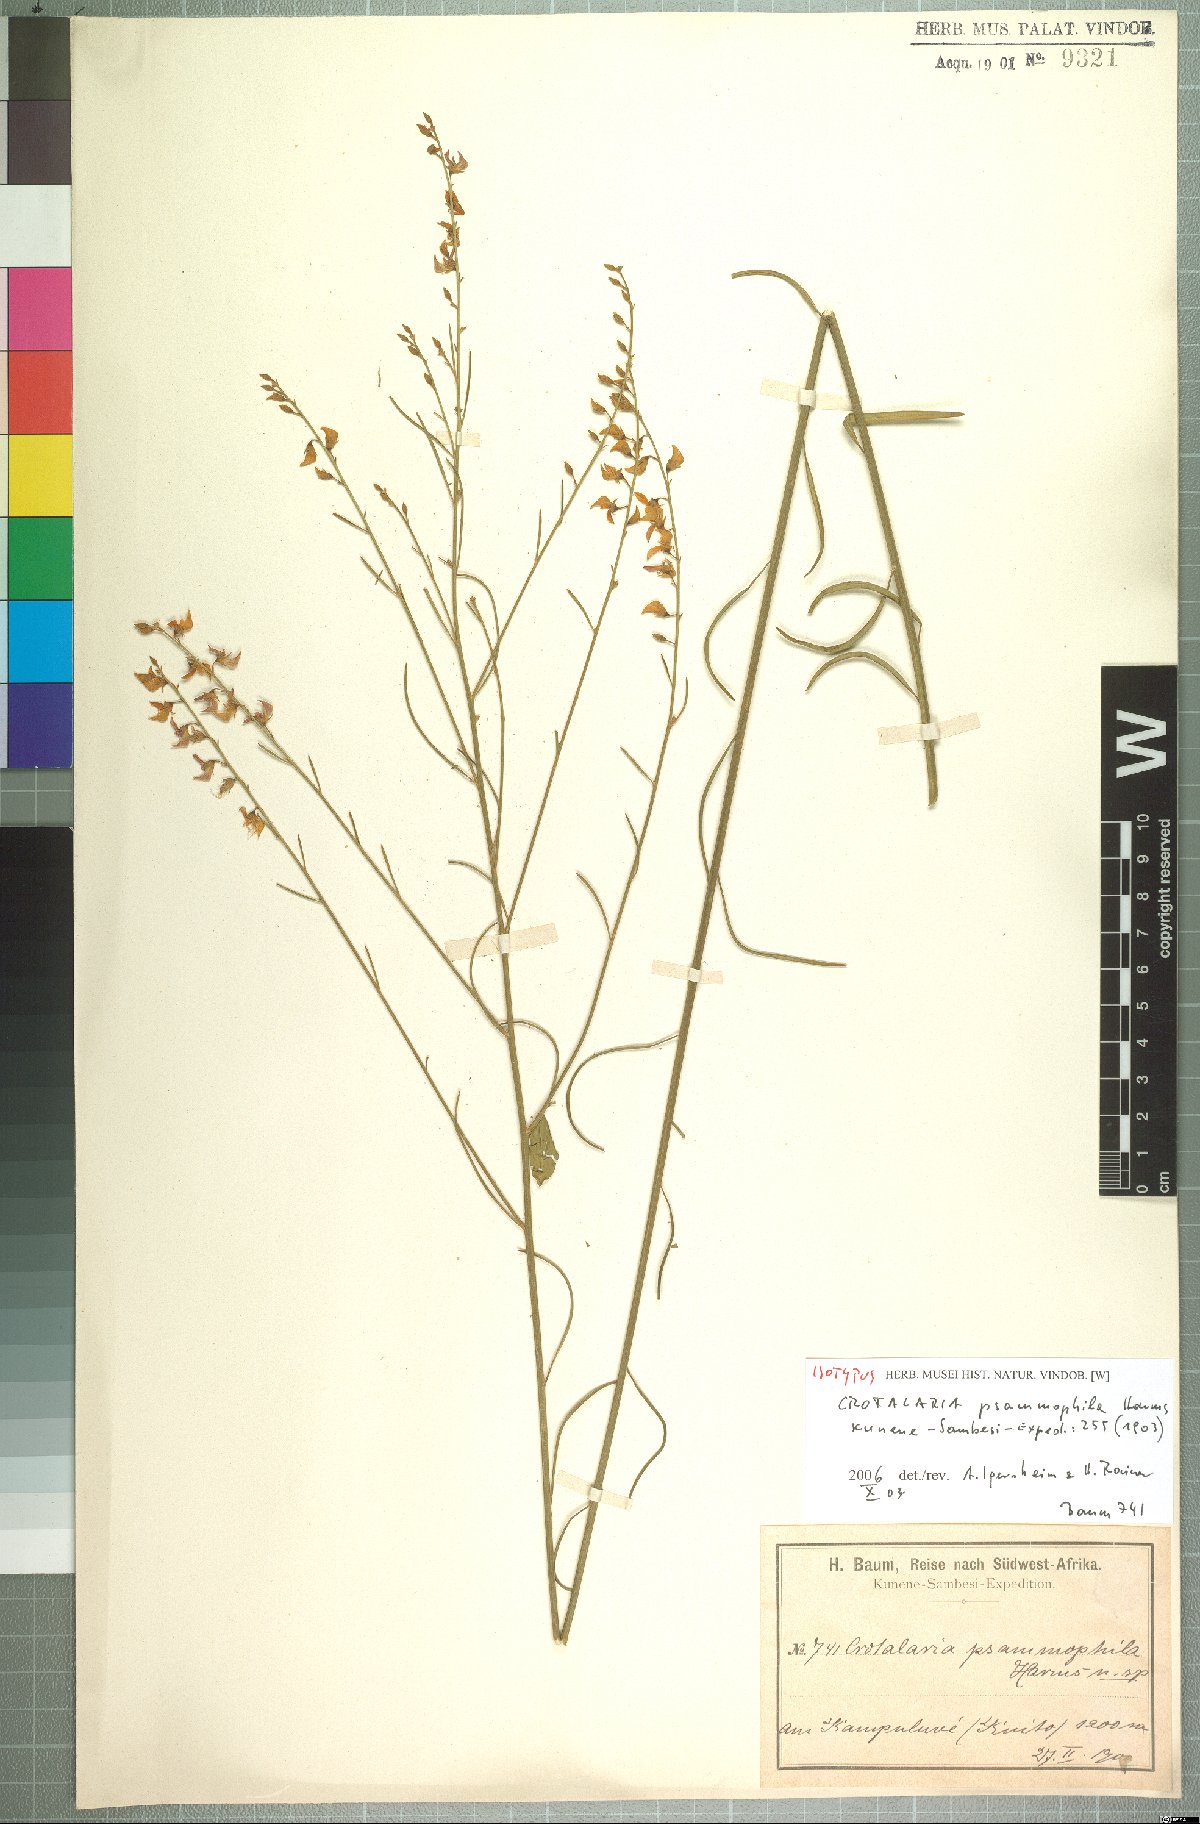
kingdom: Plantae
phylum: Tracheophyta
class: Magnoliopsida
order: Fabales
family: Fabaceae
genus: Crotalaria
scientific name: Crotalaria psammophila
